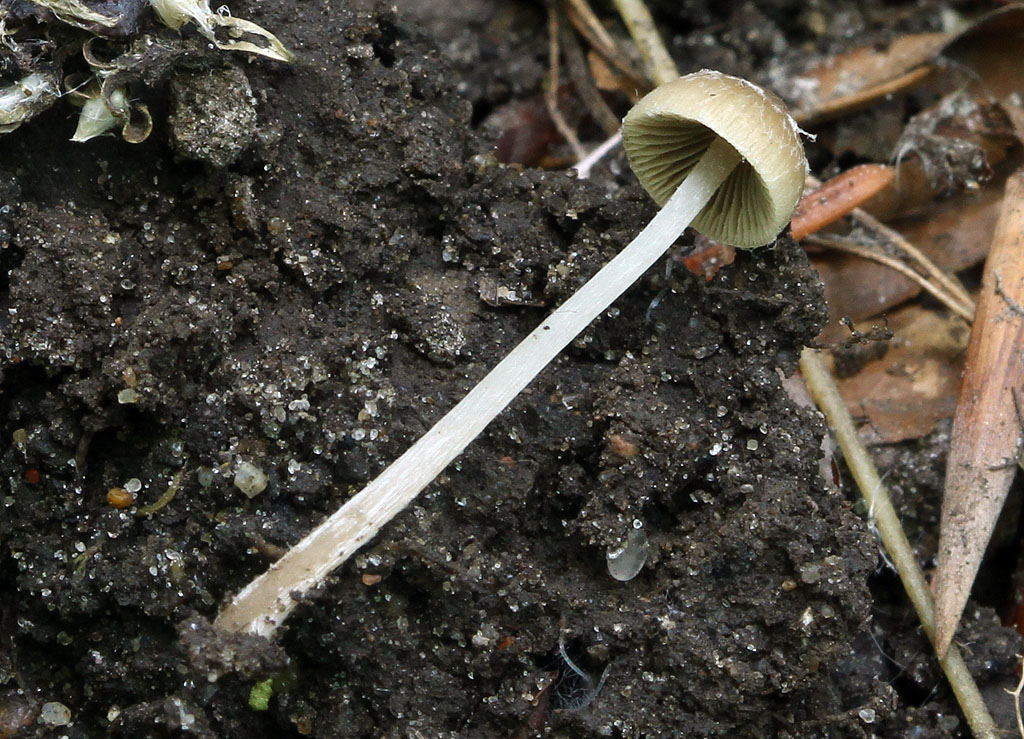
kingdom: Fungi
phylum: Basidiomycota
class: Agaricomycetes
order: Agaricales
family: Psathyrellaceae
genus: Psathyrella
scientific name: Psathyrella effibulata
